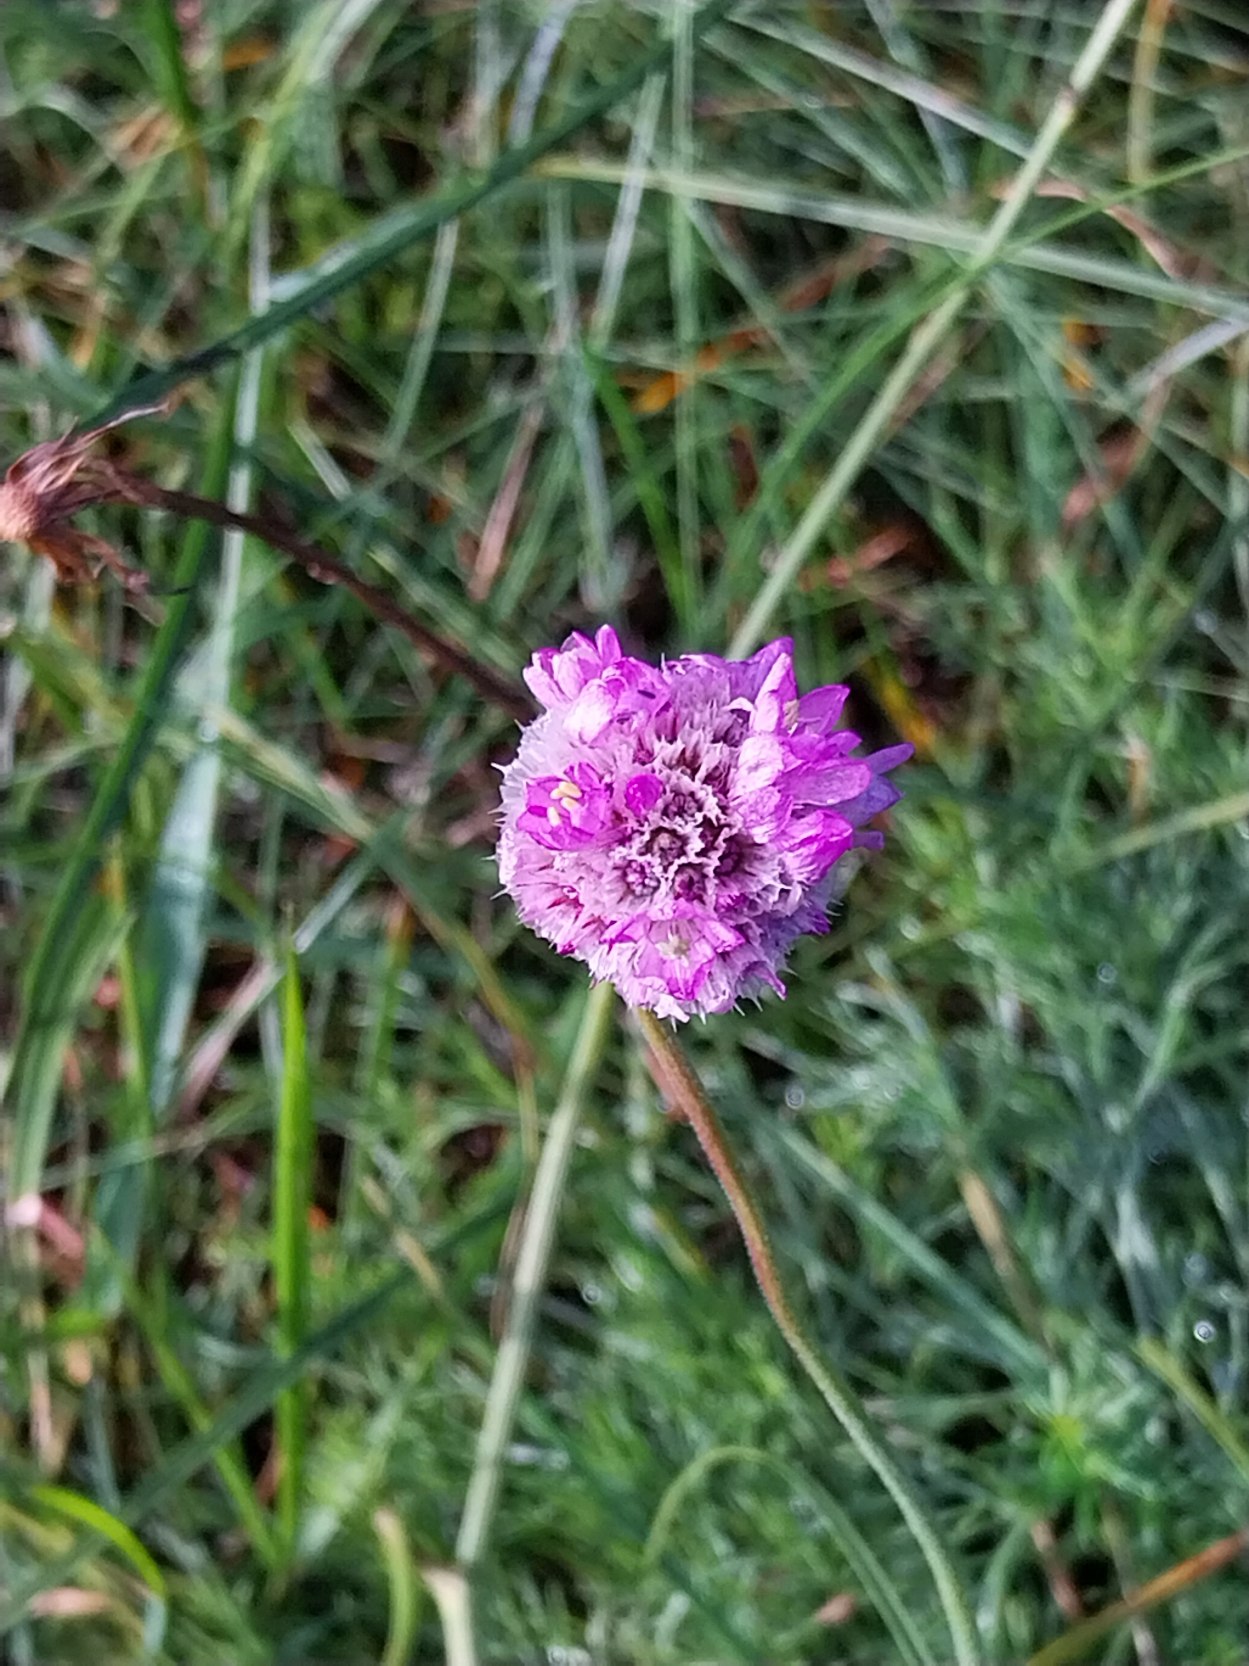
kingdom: Plantae
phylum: Tracheophyta
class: Magnoliopsida
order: Caryophyllales
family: Plumbaginaceae
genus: Armeria
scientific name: Armeria maritima
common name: Engelskgræs
